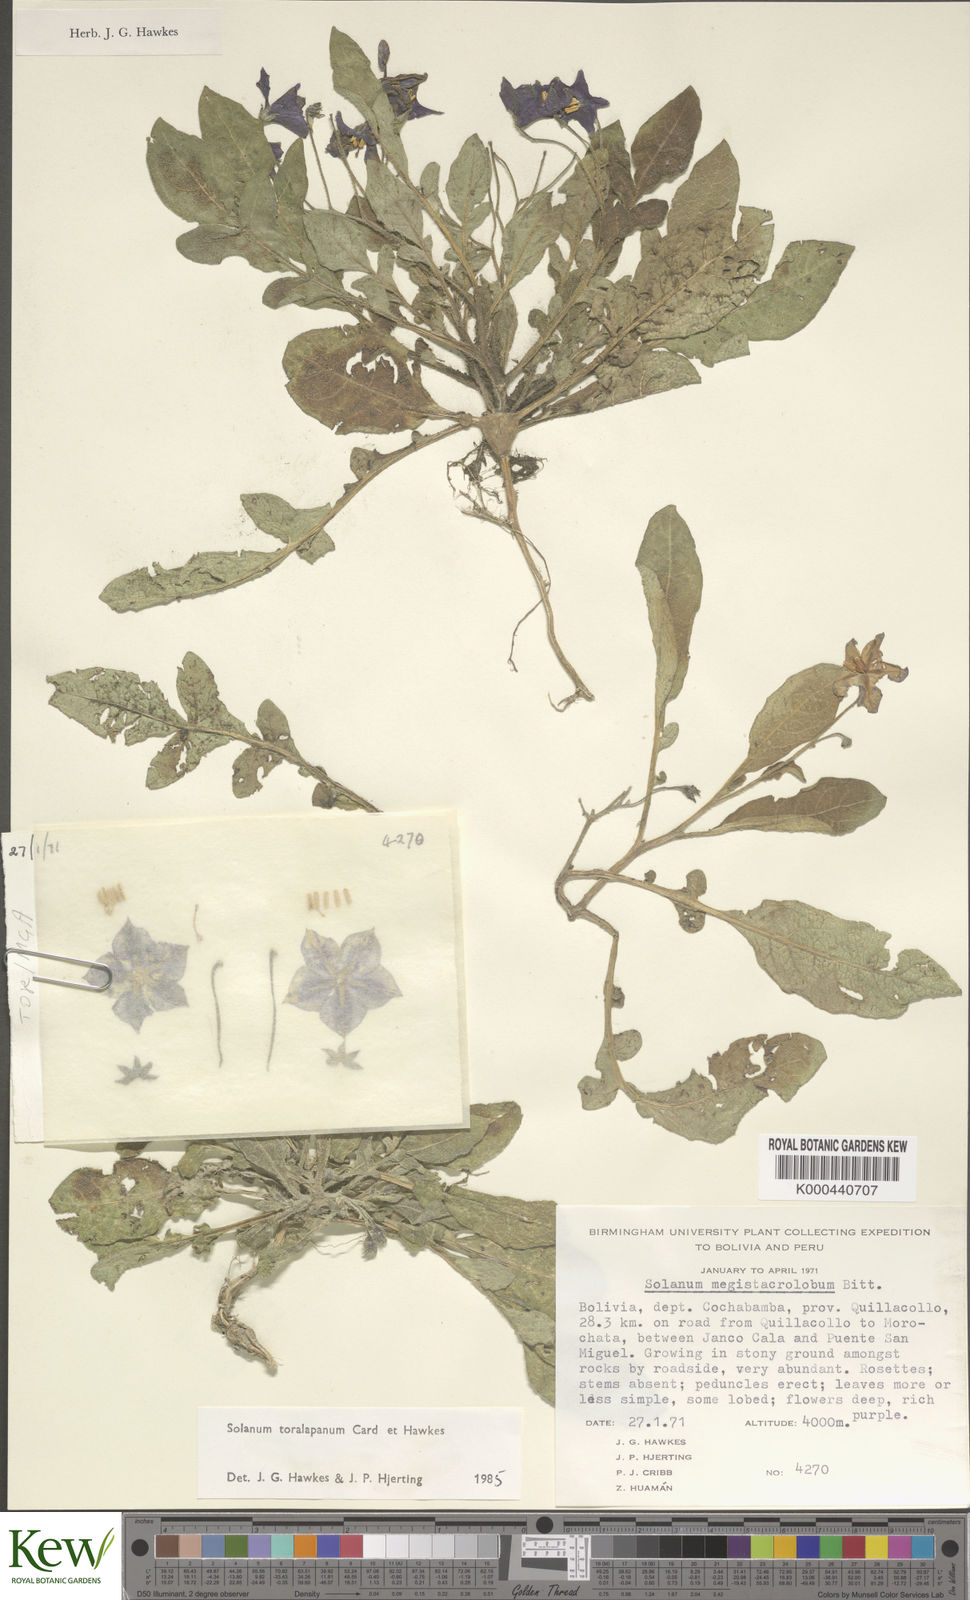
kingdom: Plantae
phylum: Tracheophyta
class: Magnoliopsida
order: Solanales
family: Solanaceae
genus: Solanum
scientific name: Solanum boliviense
